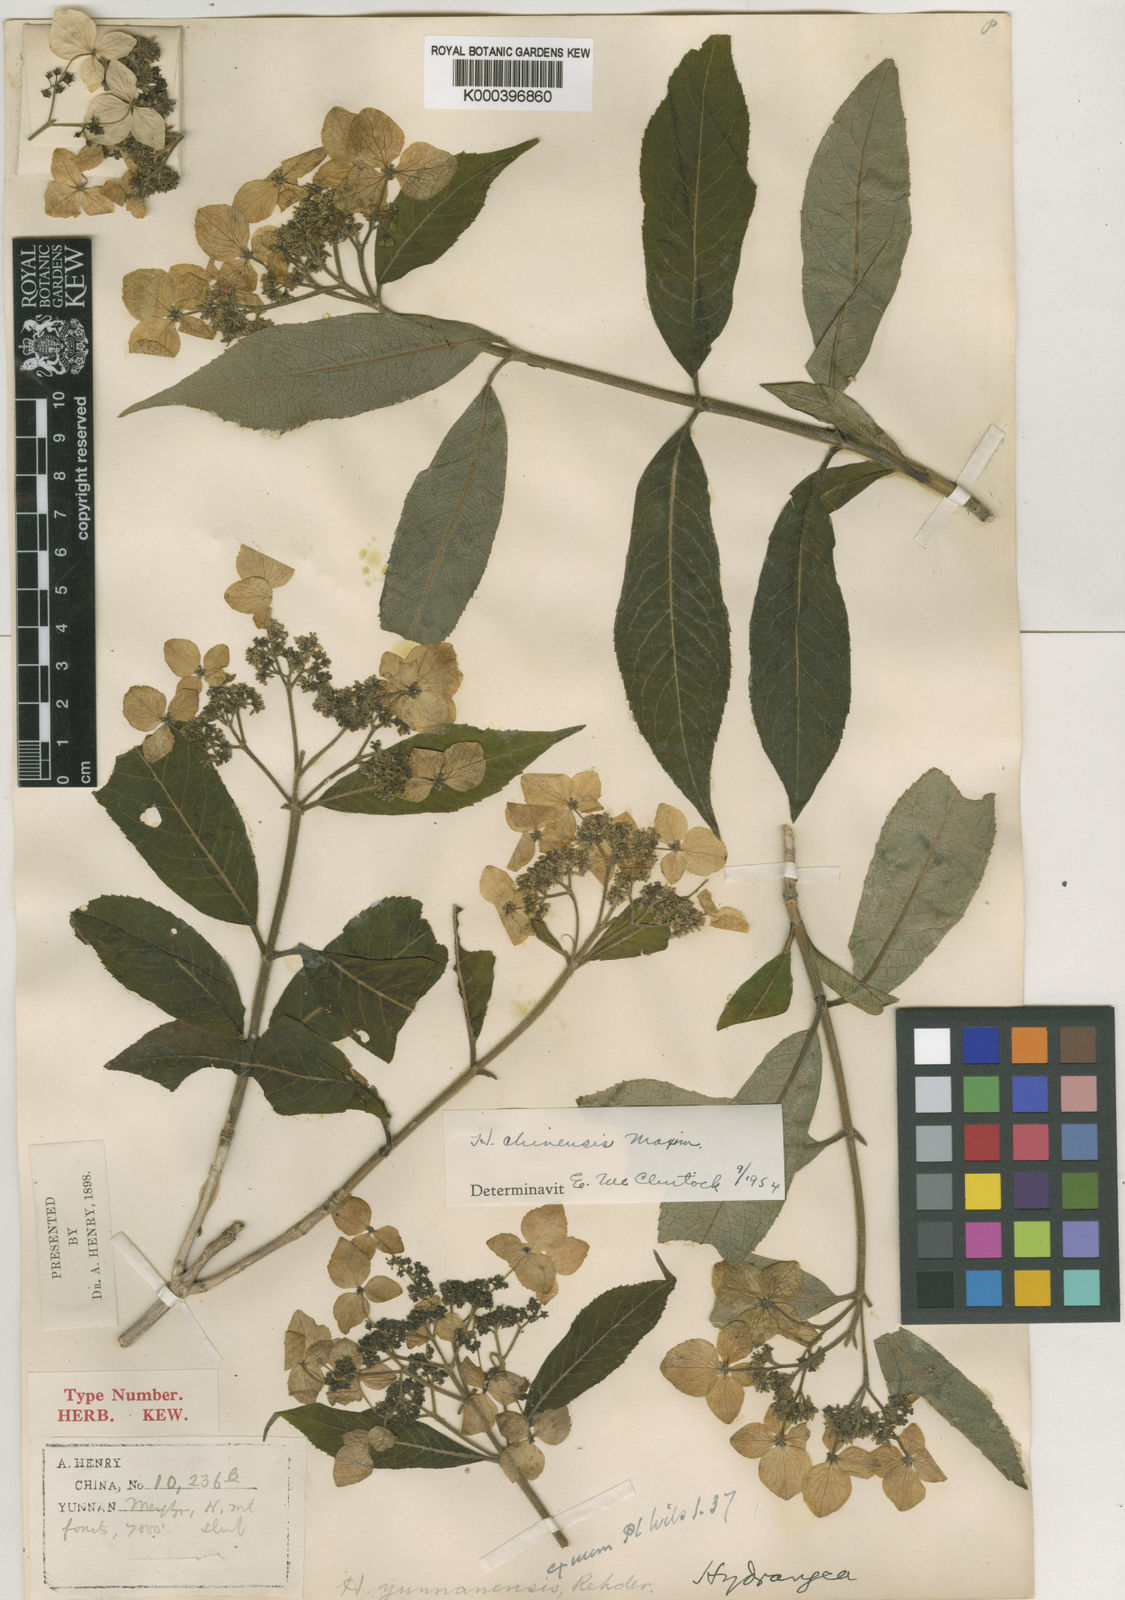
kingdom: Plantae
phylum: Tracheophyta
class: Magnoliopsida
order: Cornales
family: Hydrangeaceae
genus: Hydrangea
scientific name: Hydrangea chinensis
